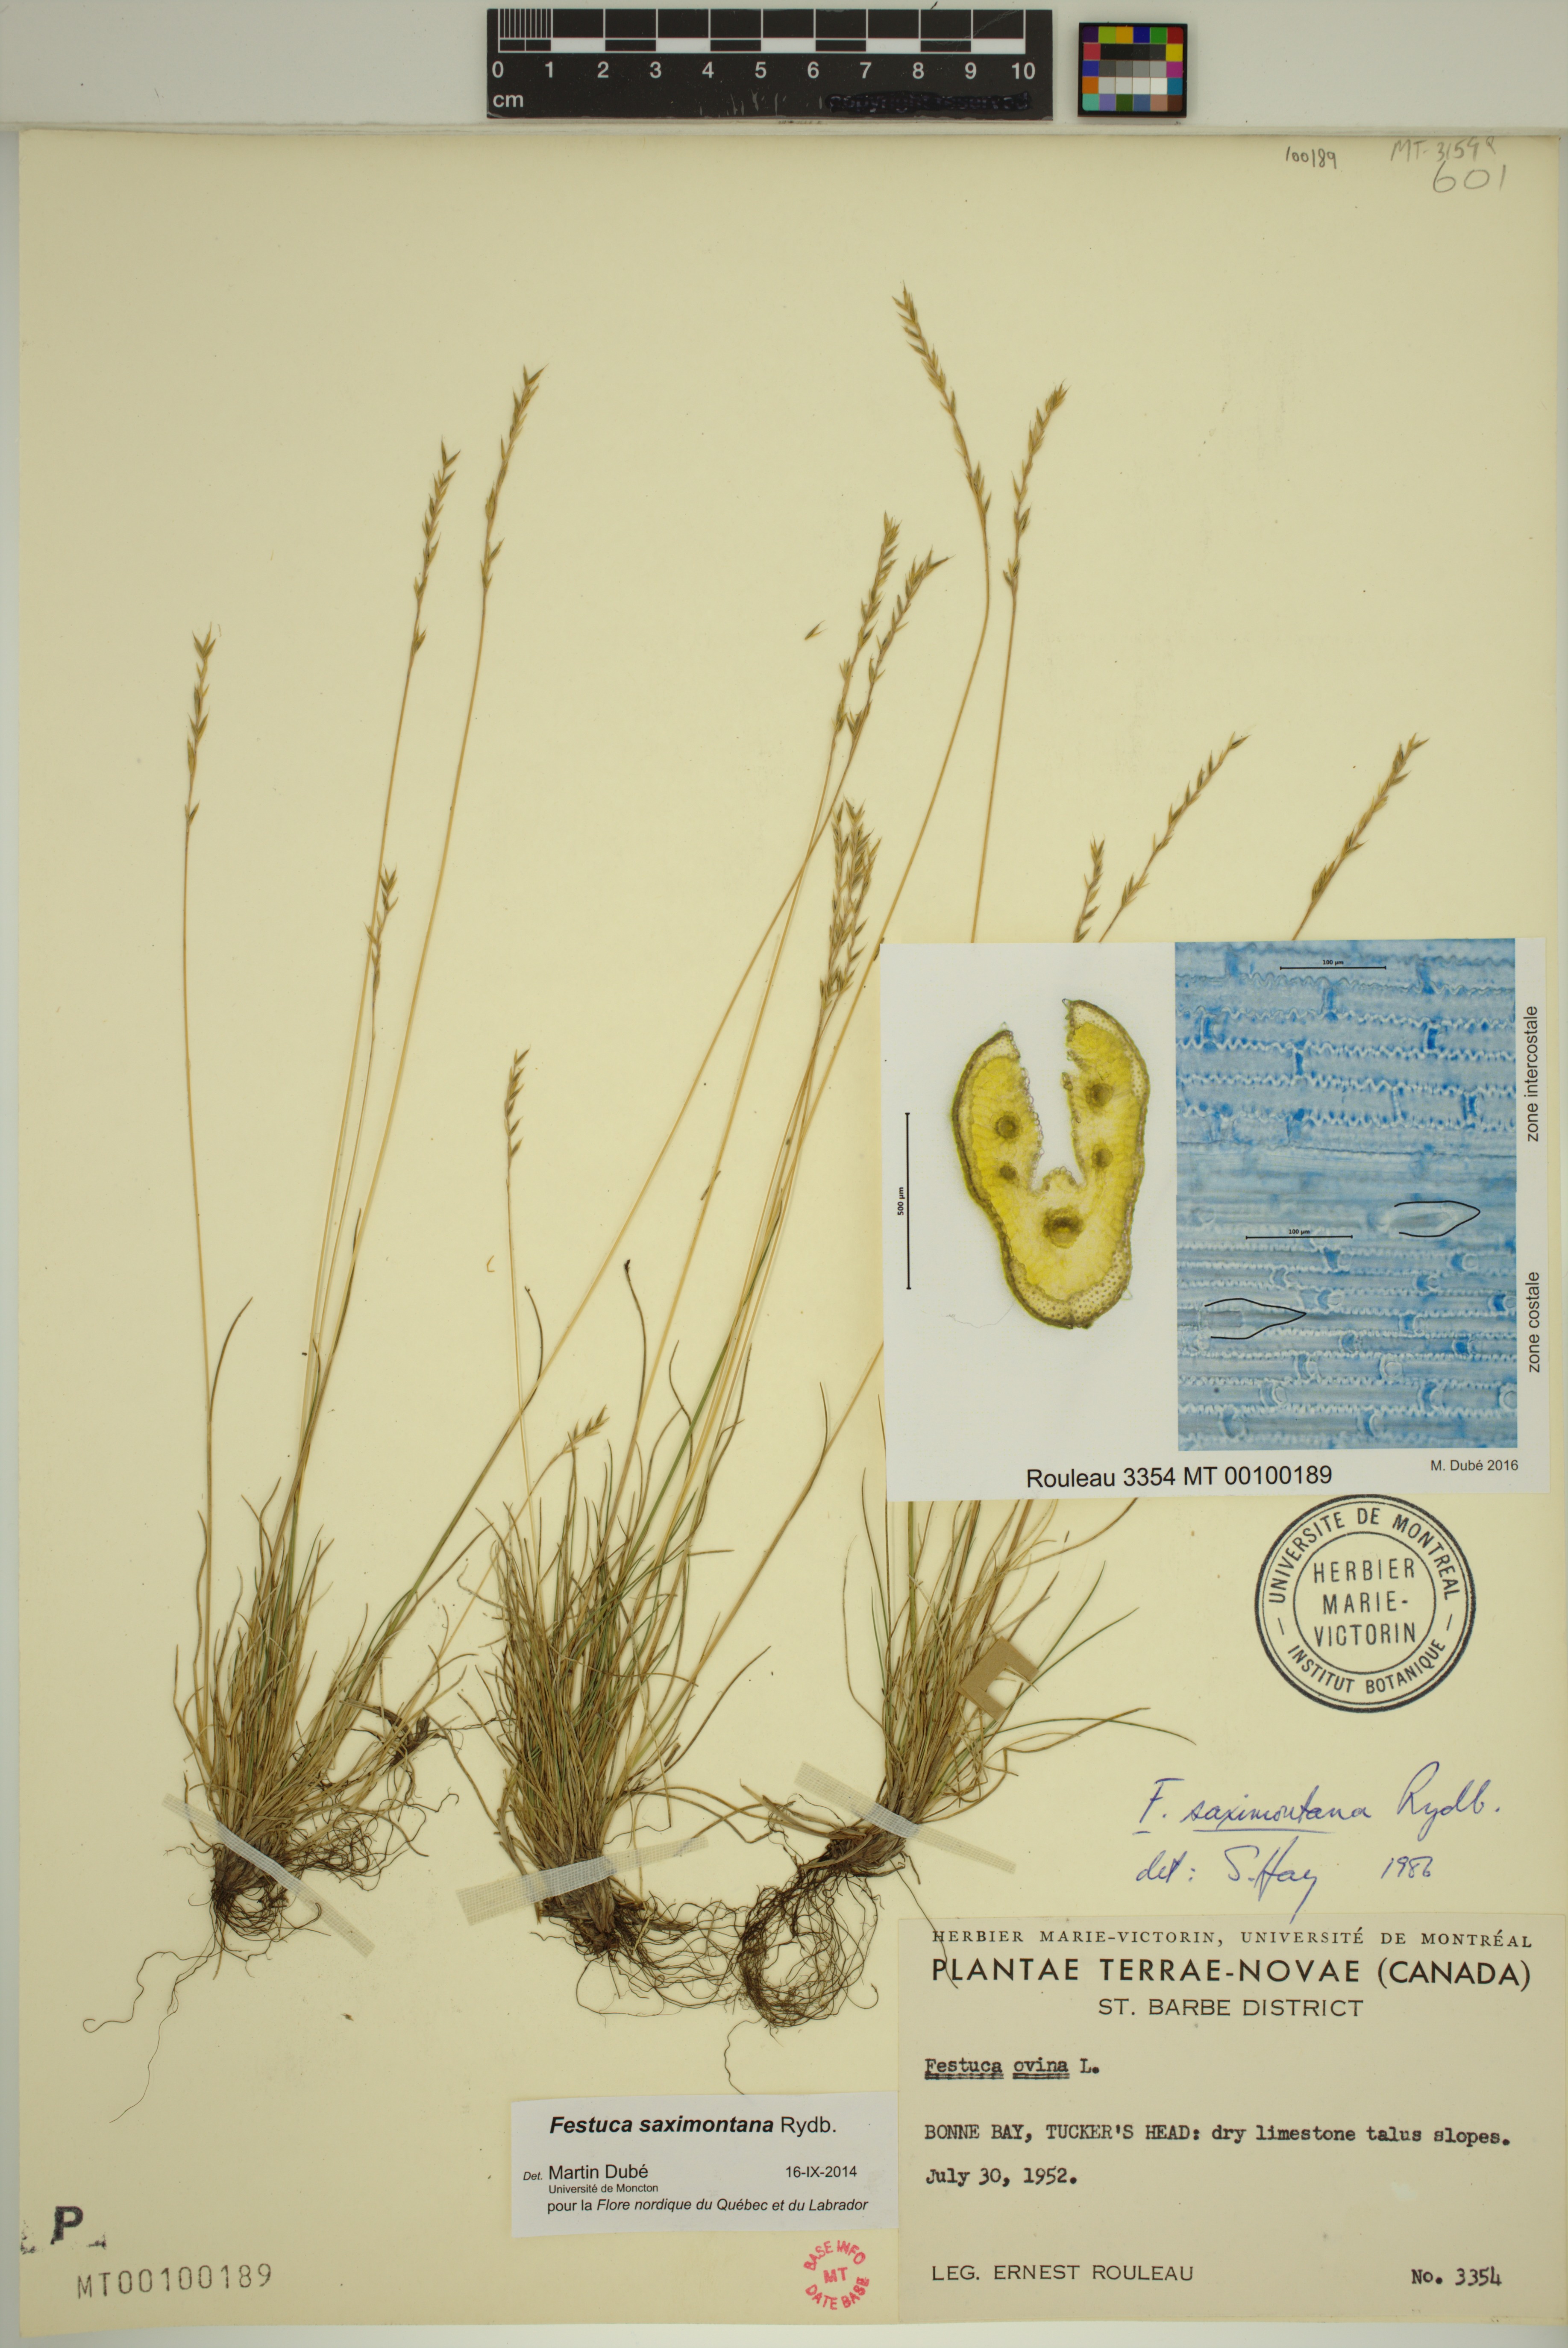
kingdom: Plantae
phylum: Tracheophyta
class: Liliopsida
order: Poales
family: Poaceae
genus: Festuca
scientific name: Festuca saximontana
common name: Mountain fescue
